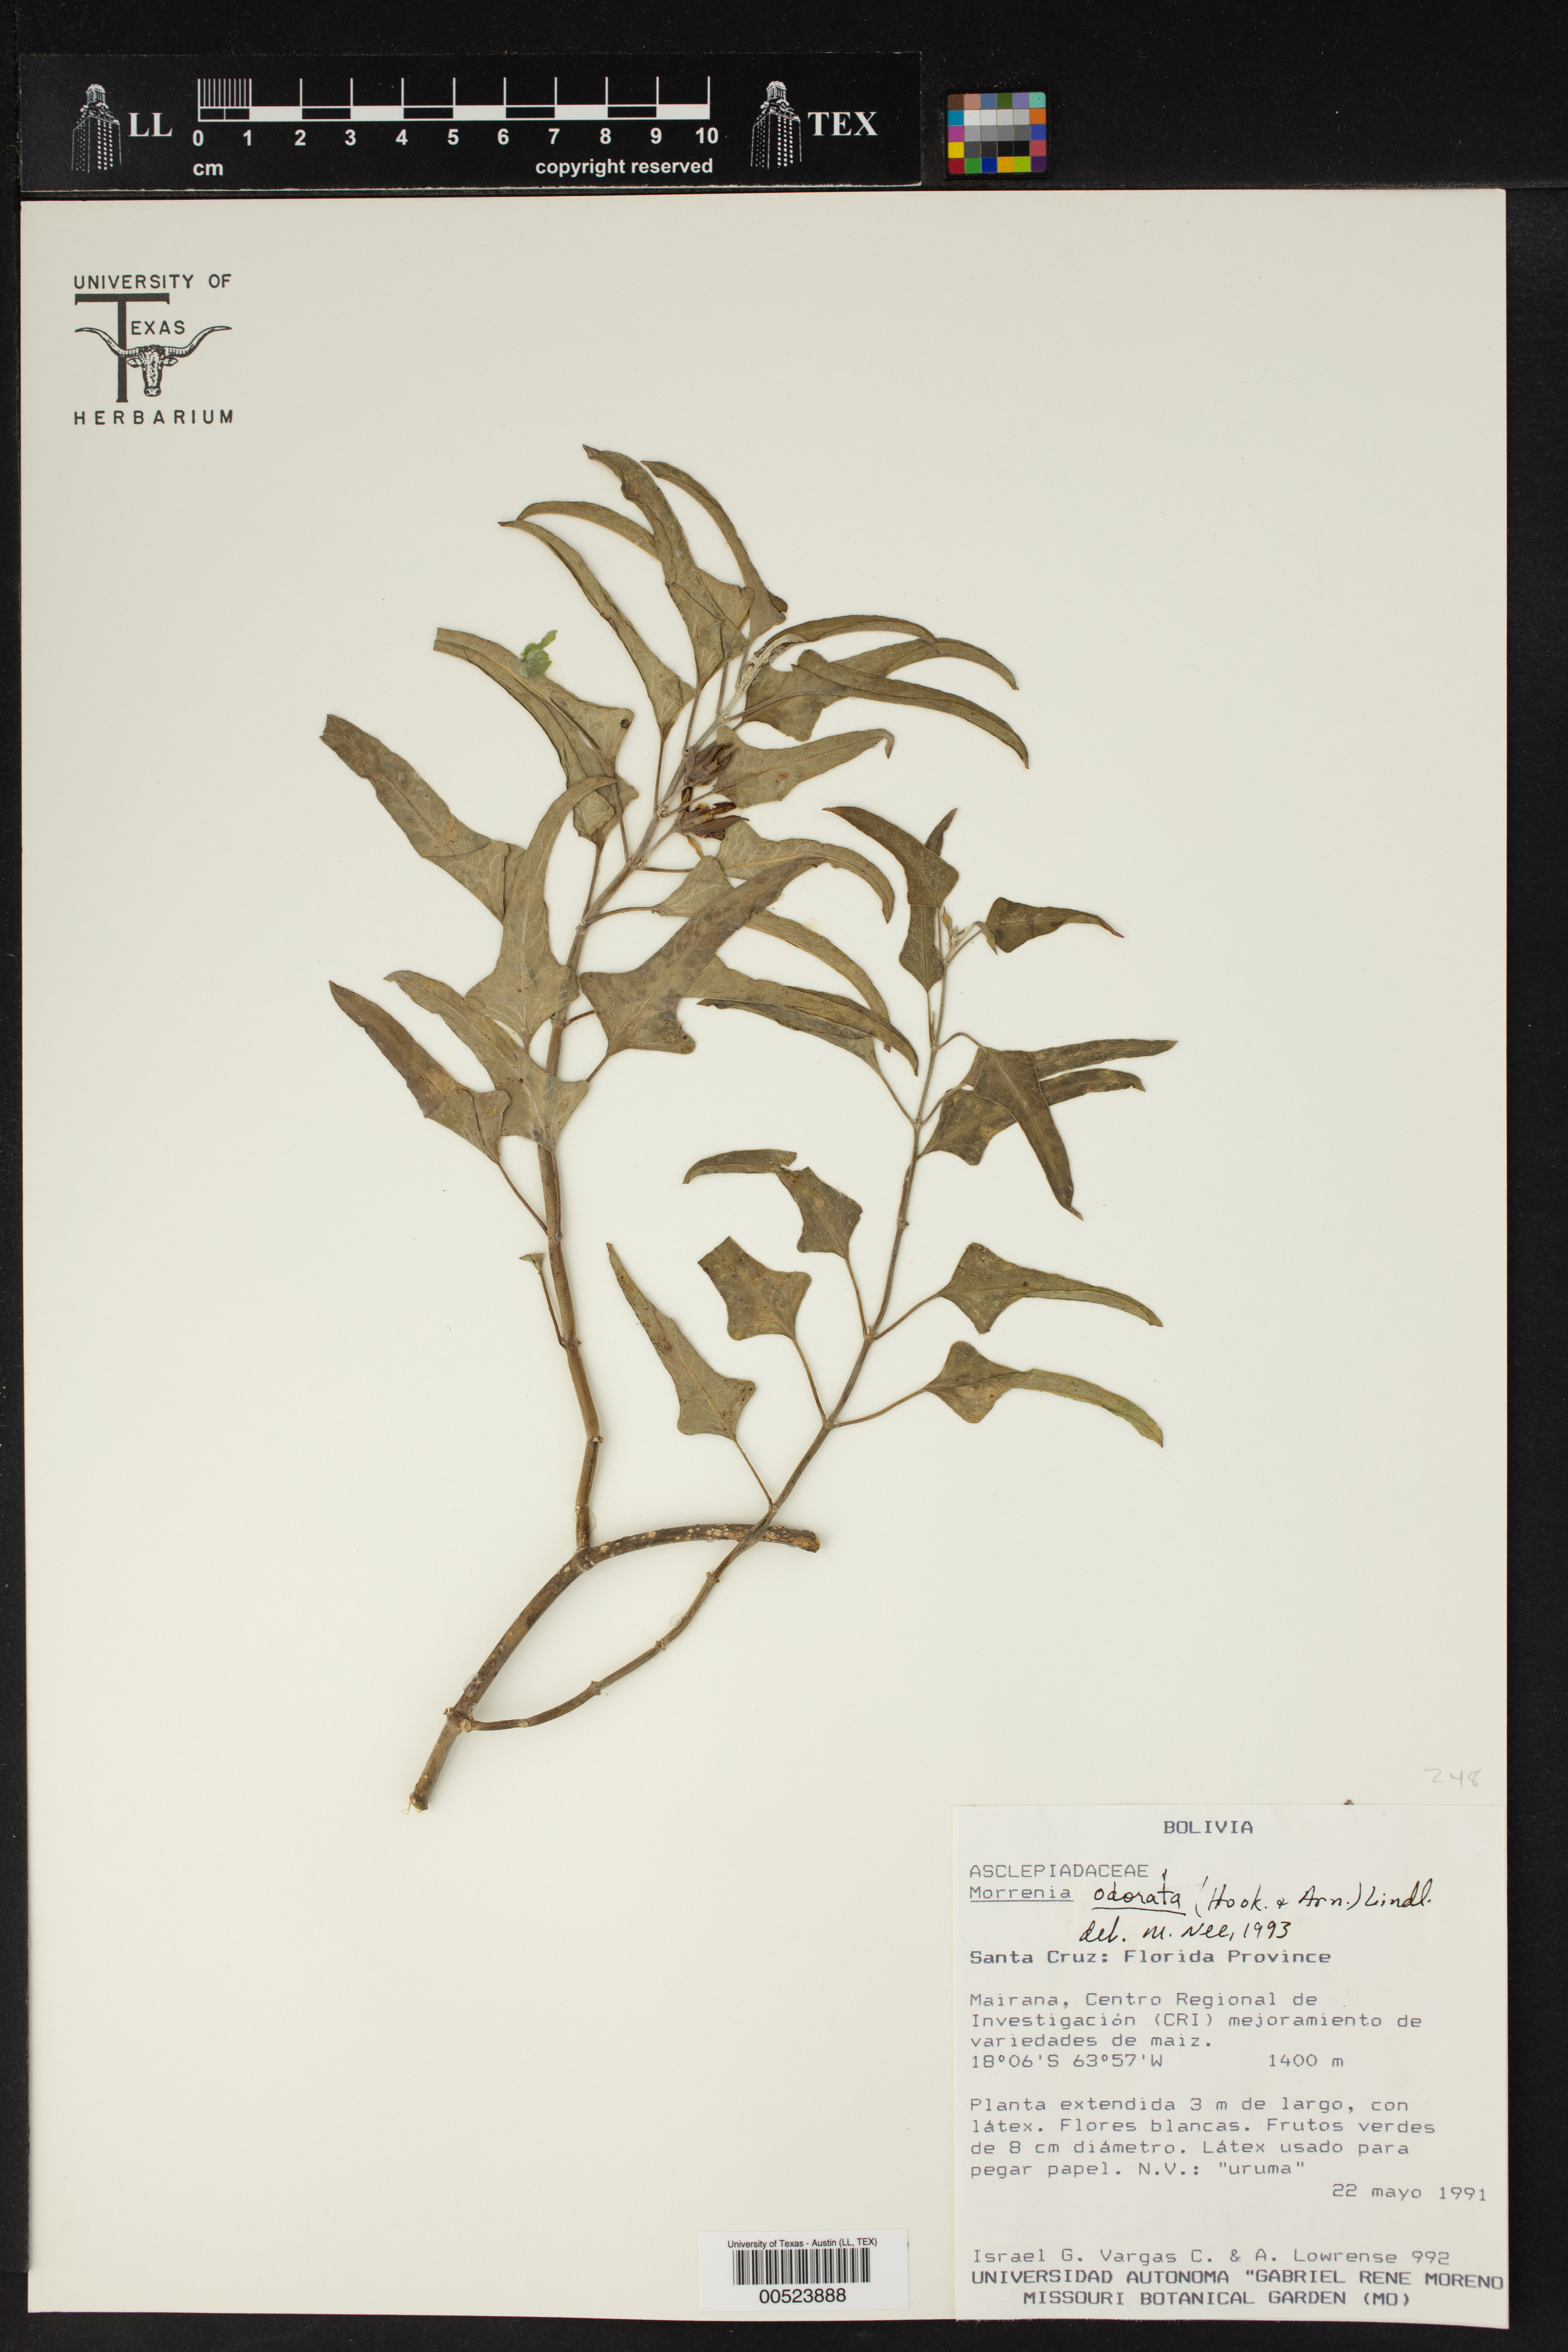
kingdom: Plantae
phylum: Tracheophyta
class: Magnoliopsida
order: Gentianales
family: Apocynaceae
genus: Araujia
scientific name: Araujia odorata
